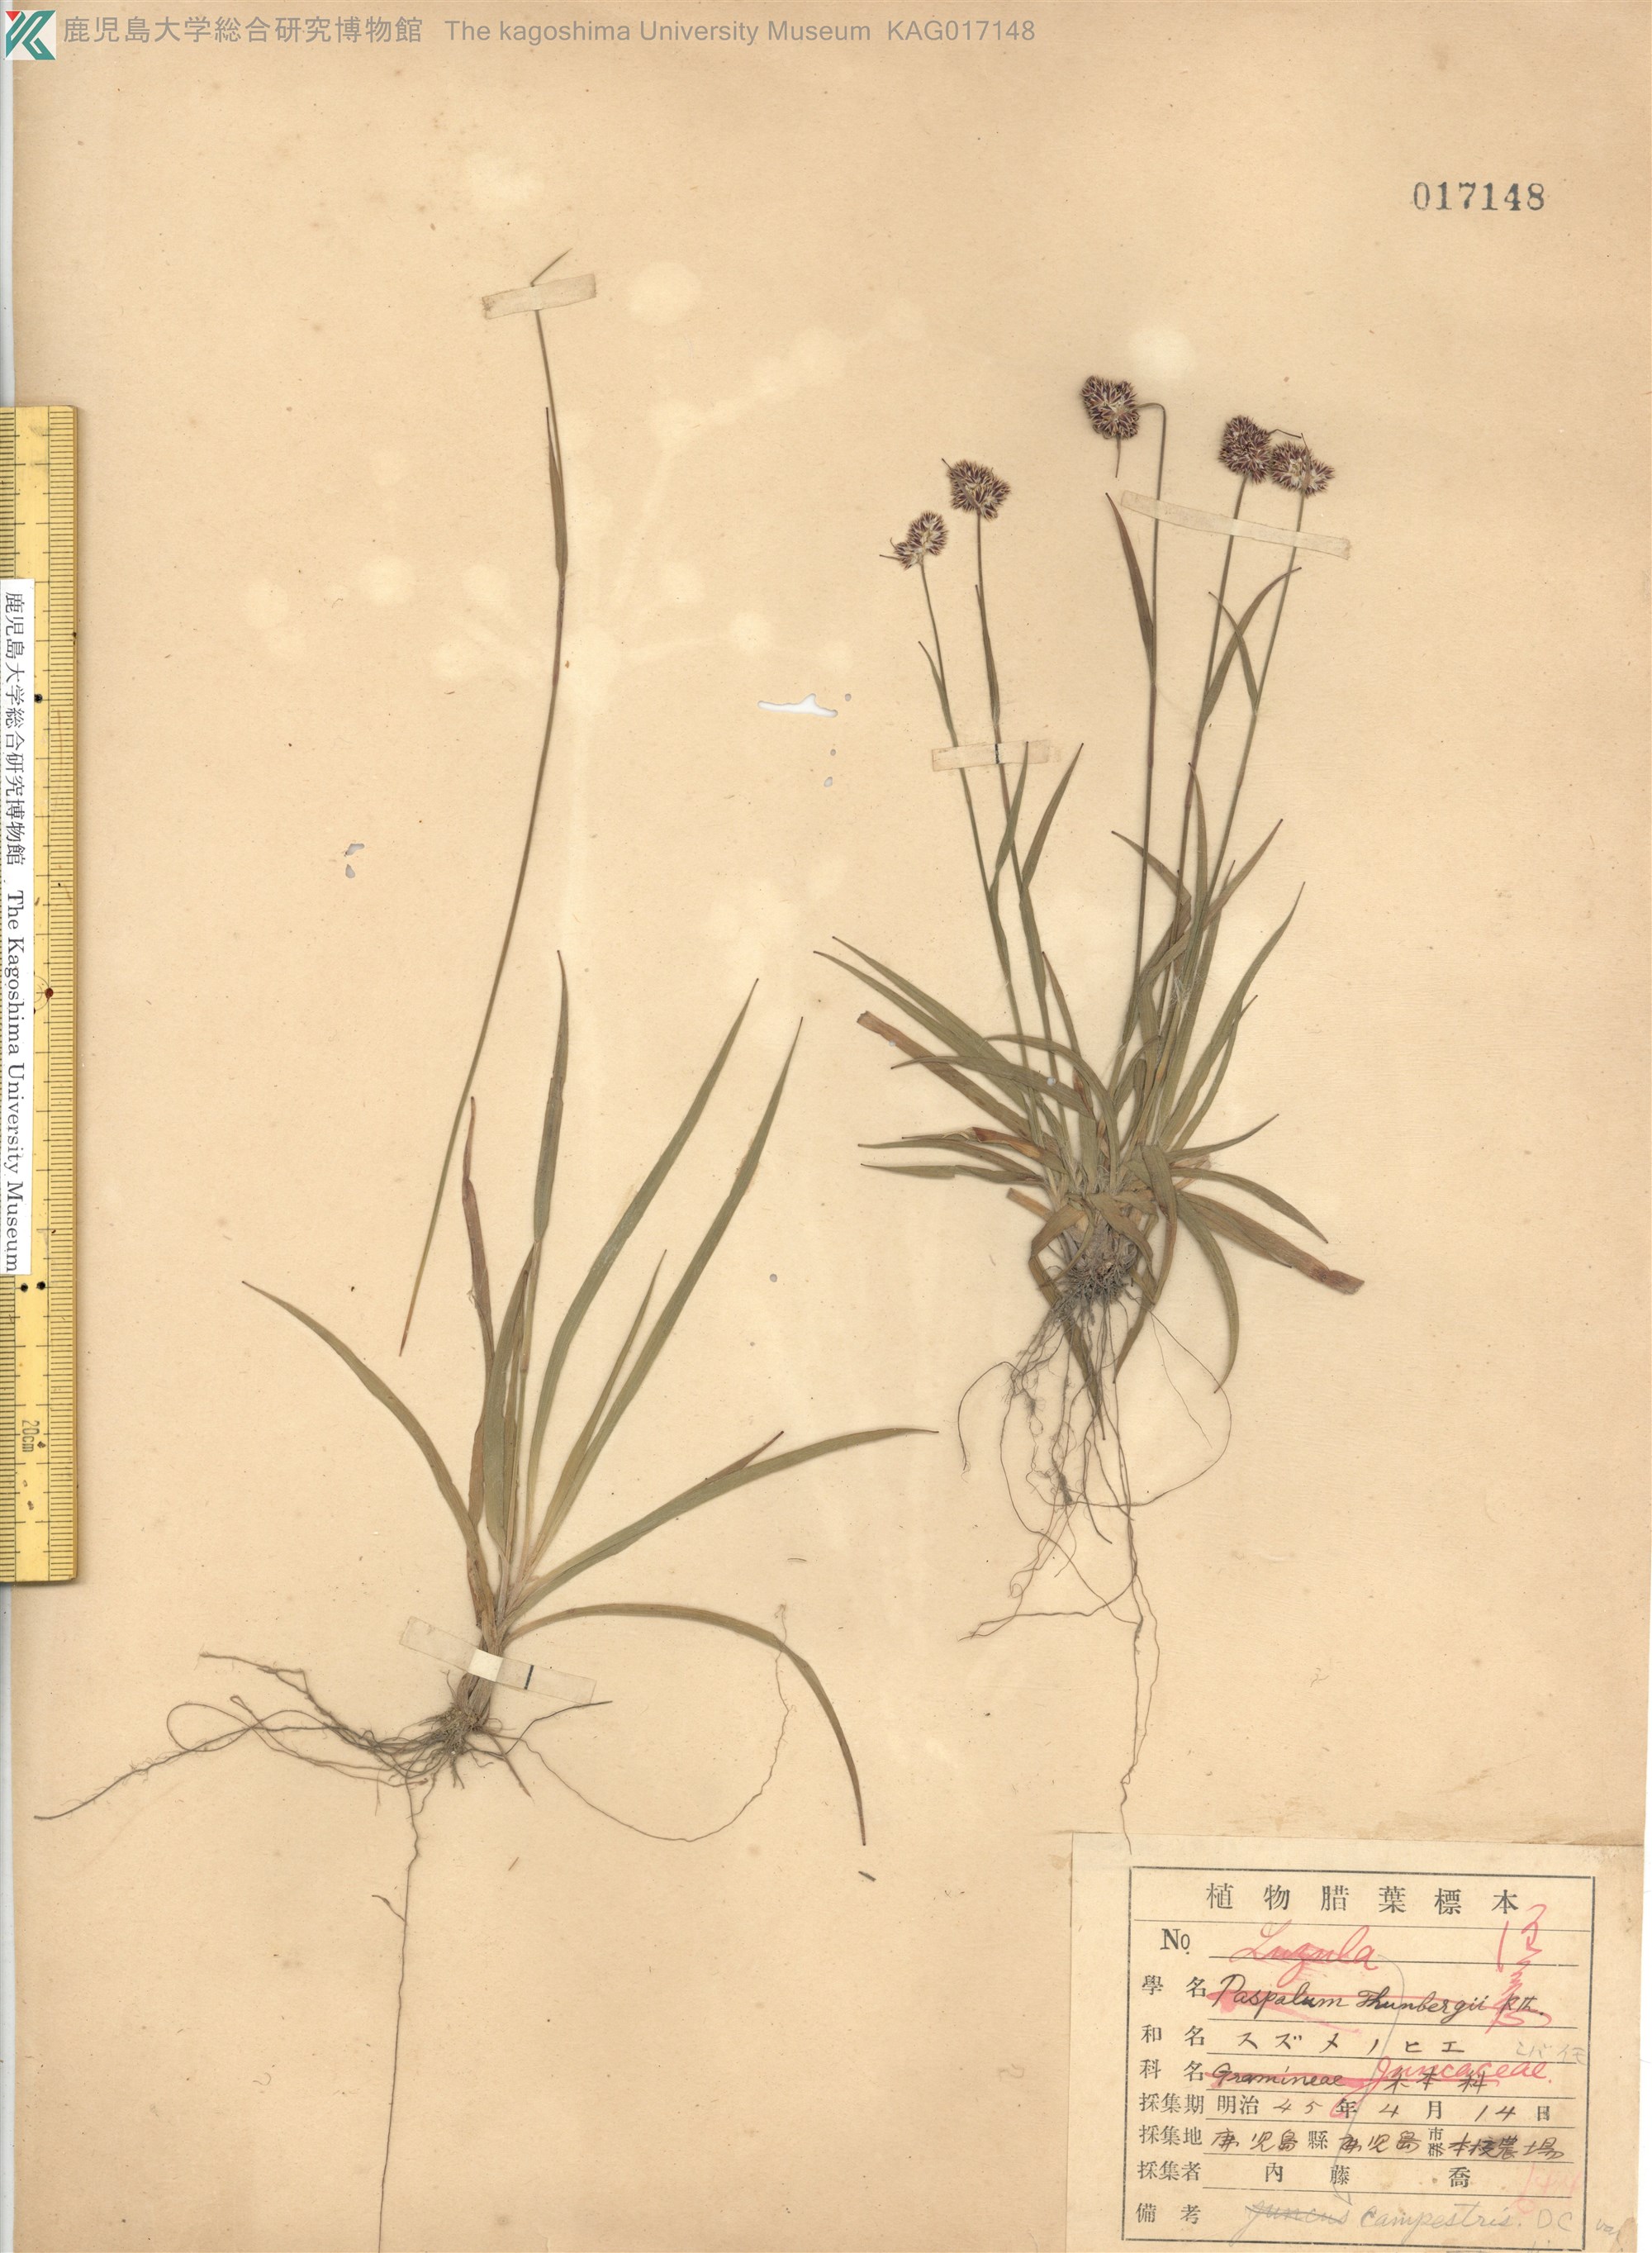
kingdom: Plantae
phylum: Tracheophyta
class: Liliopsida
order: Poales
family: Juncaceae
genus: Luzula
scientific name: Luzula capitata
